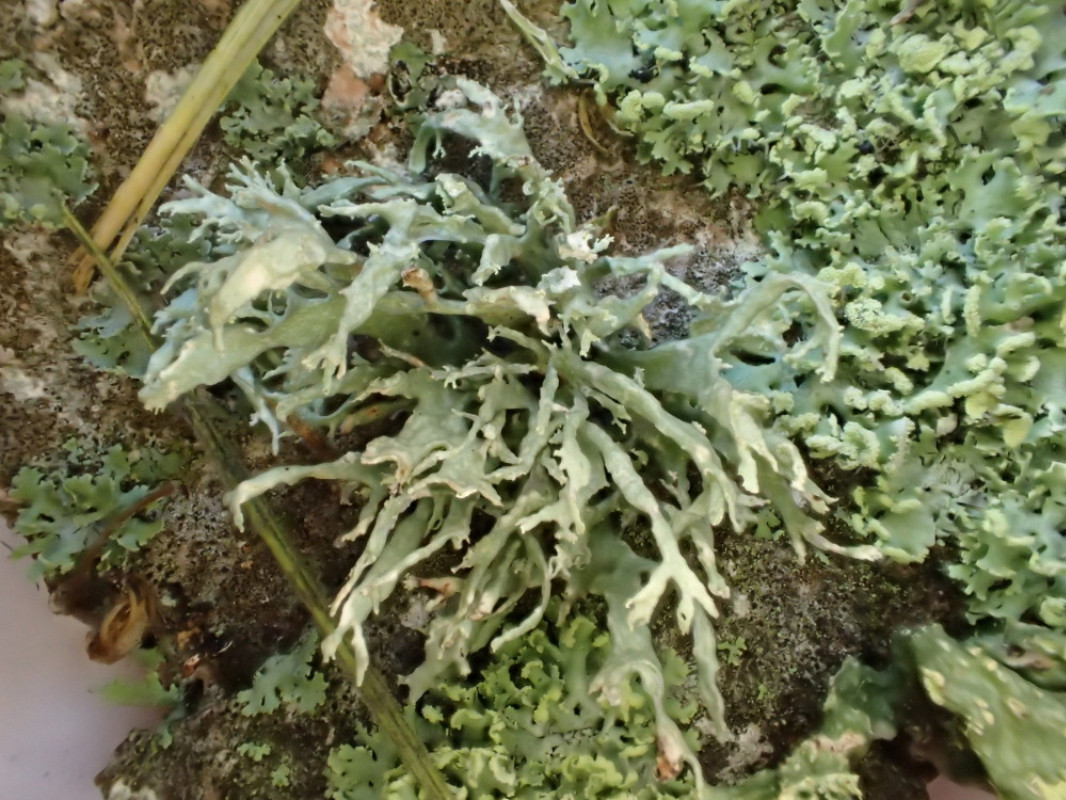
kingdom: Fungi
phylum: Ascomycota
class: Lecanoromycetes
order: Lecanorales
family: Ramalinaceae
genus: Ramalina
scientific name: Ramalina farinacea
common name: melet grenlav
